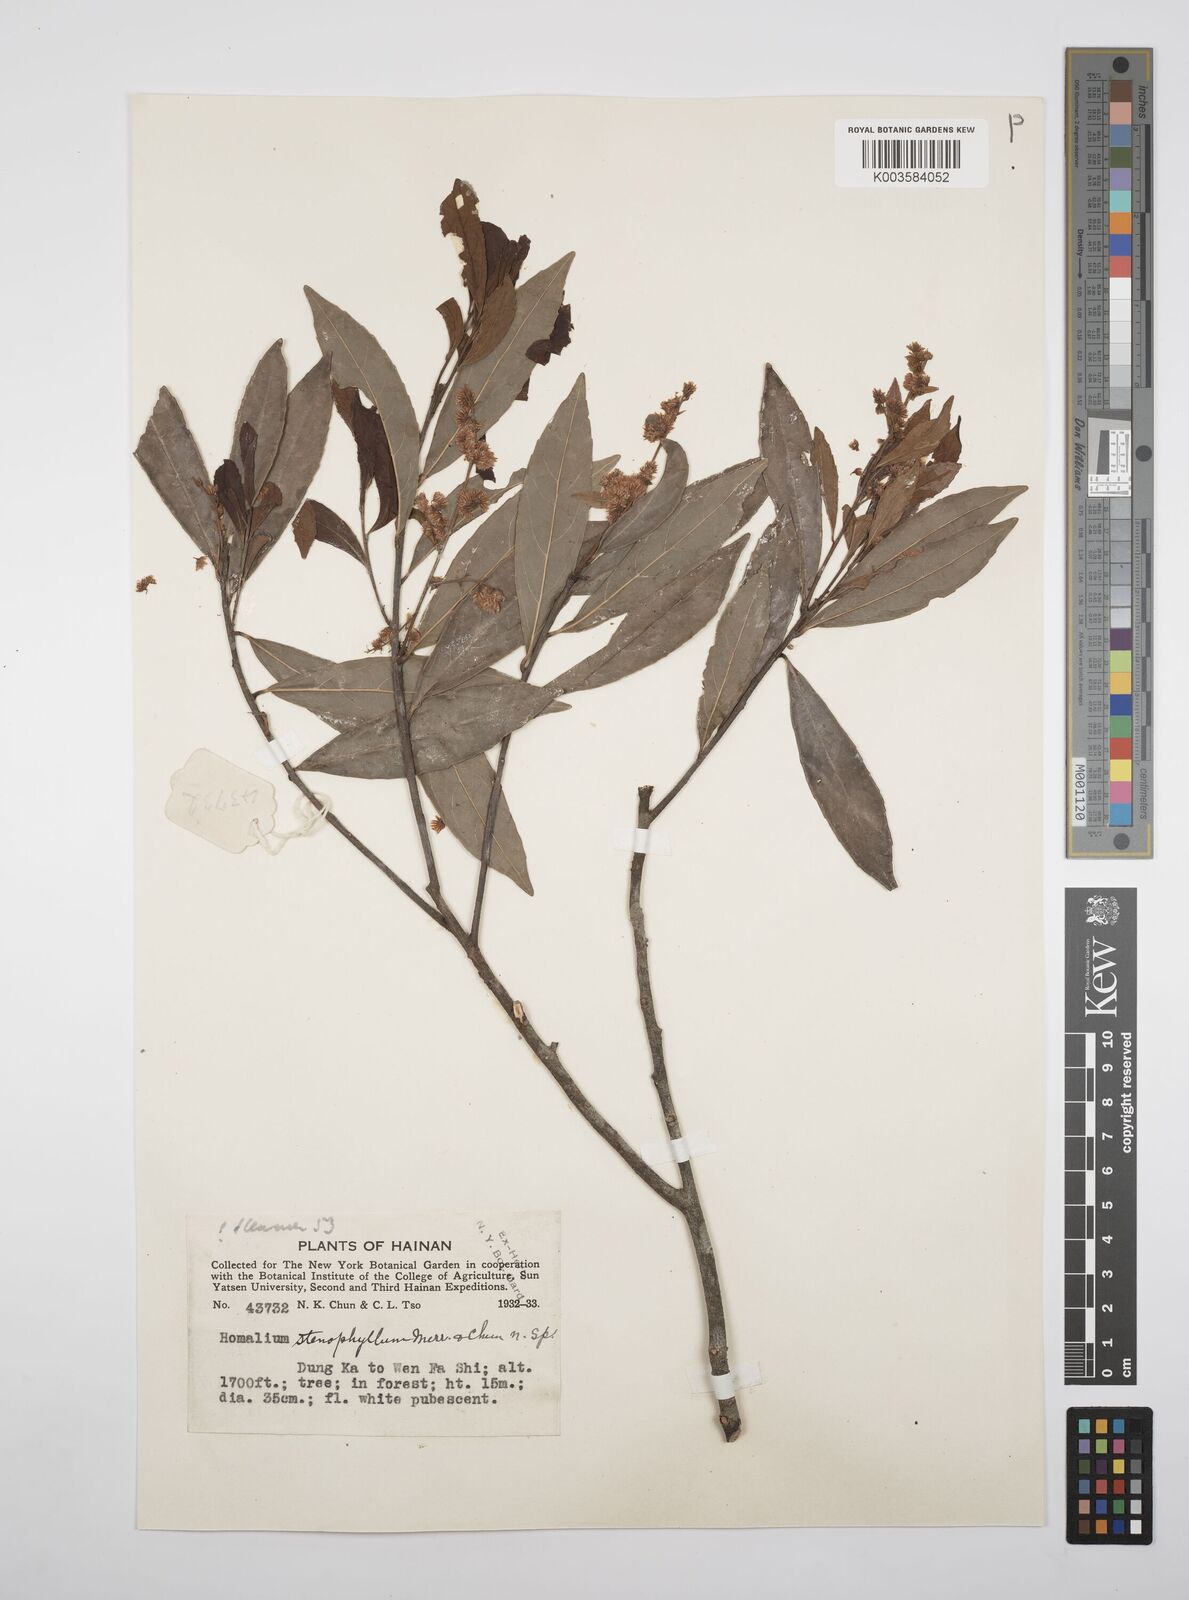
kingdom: Plantae
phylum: Tracheophyta
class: Magnoliopsida
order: Malpighiales
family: Salicaceae
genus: Homalium
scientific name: Homalium stenophyllum
